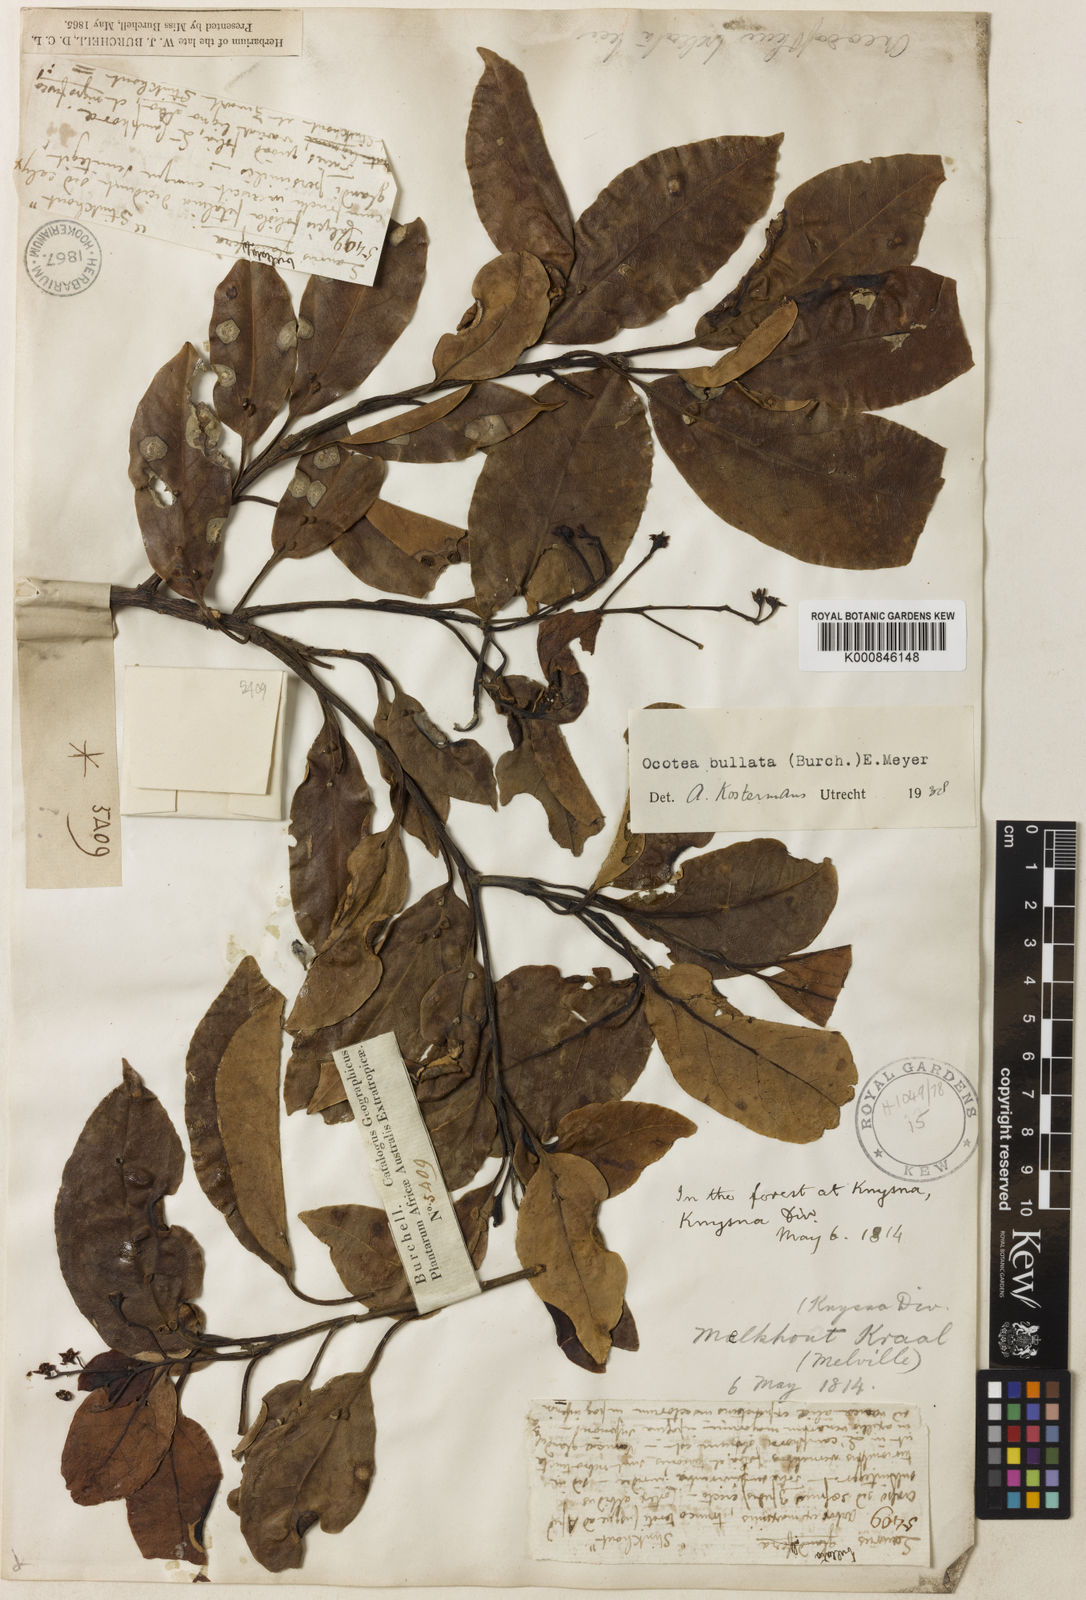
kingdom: Plantae
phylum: Tracheophyta
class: Magnoliopsida
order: Laurales
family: Lauraceae
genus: Ocotea
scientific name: Ocotea
